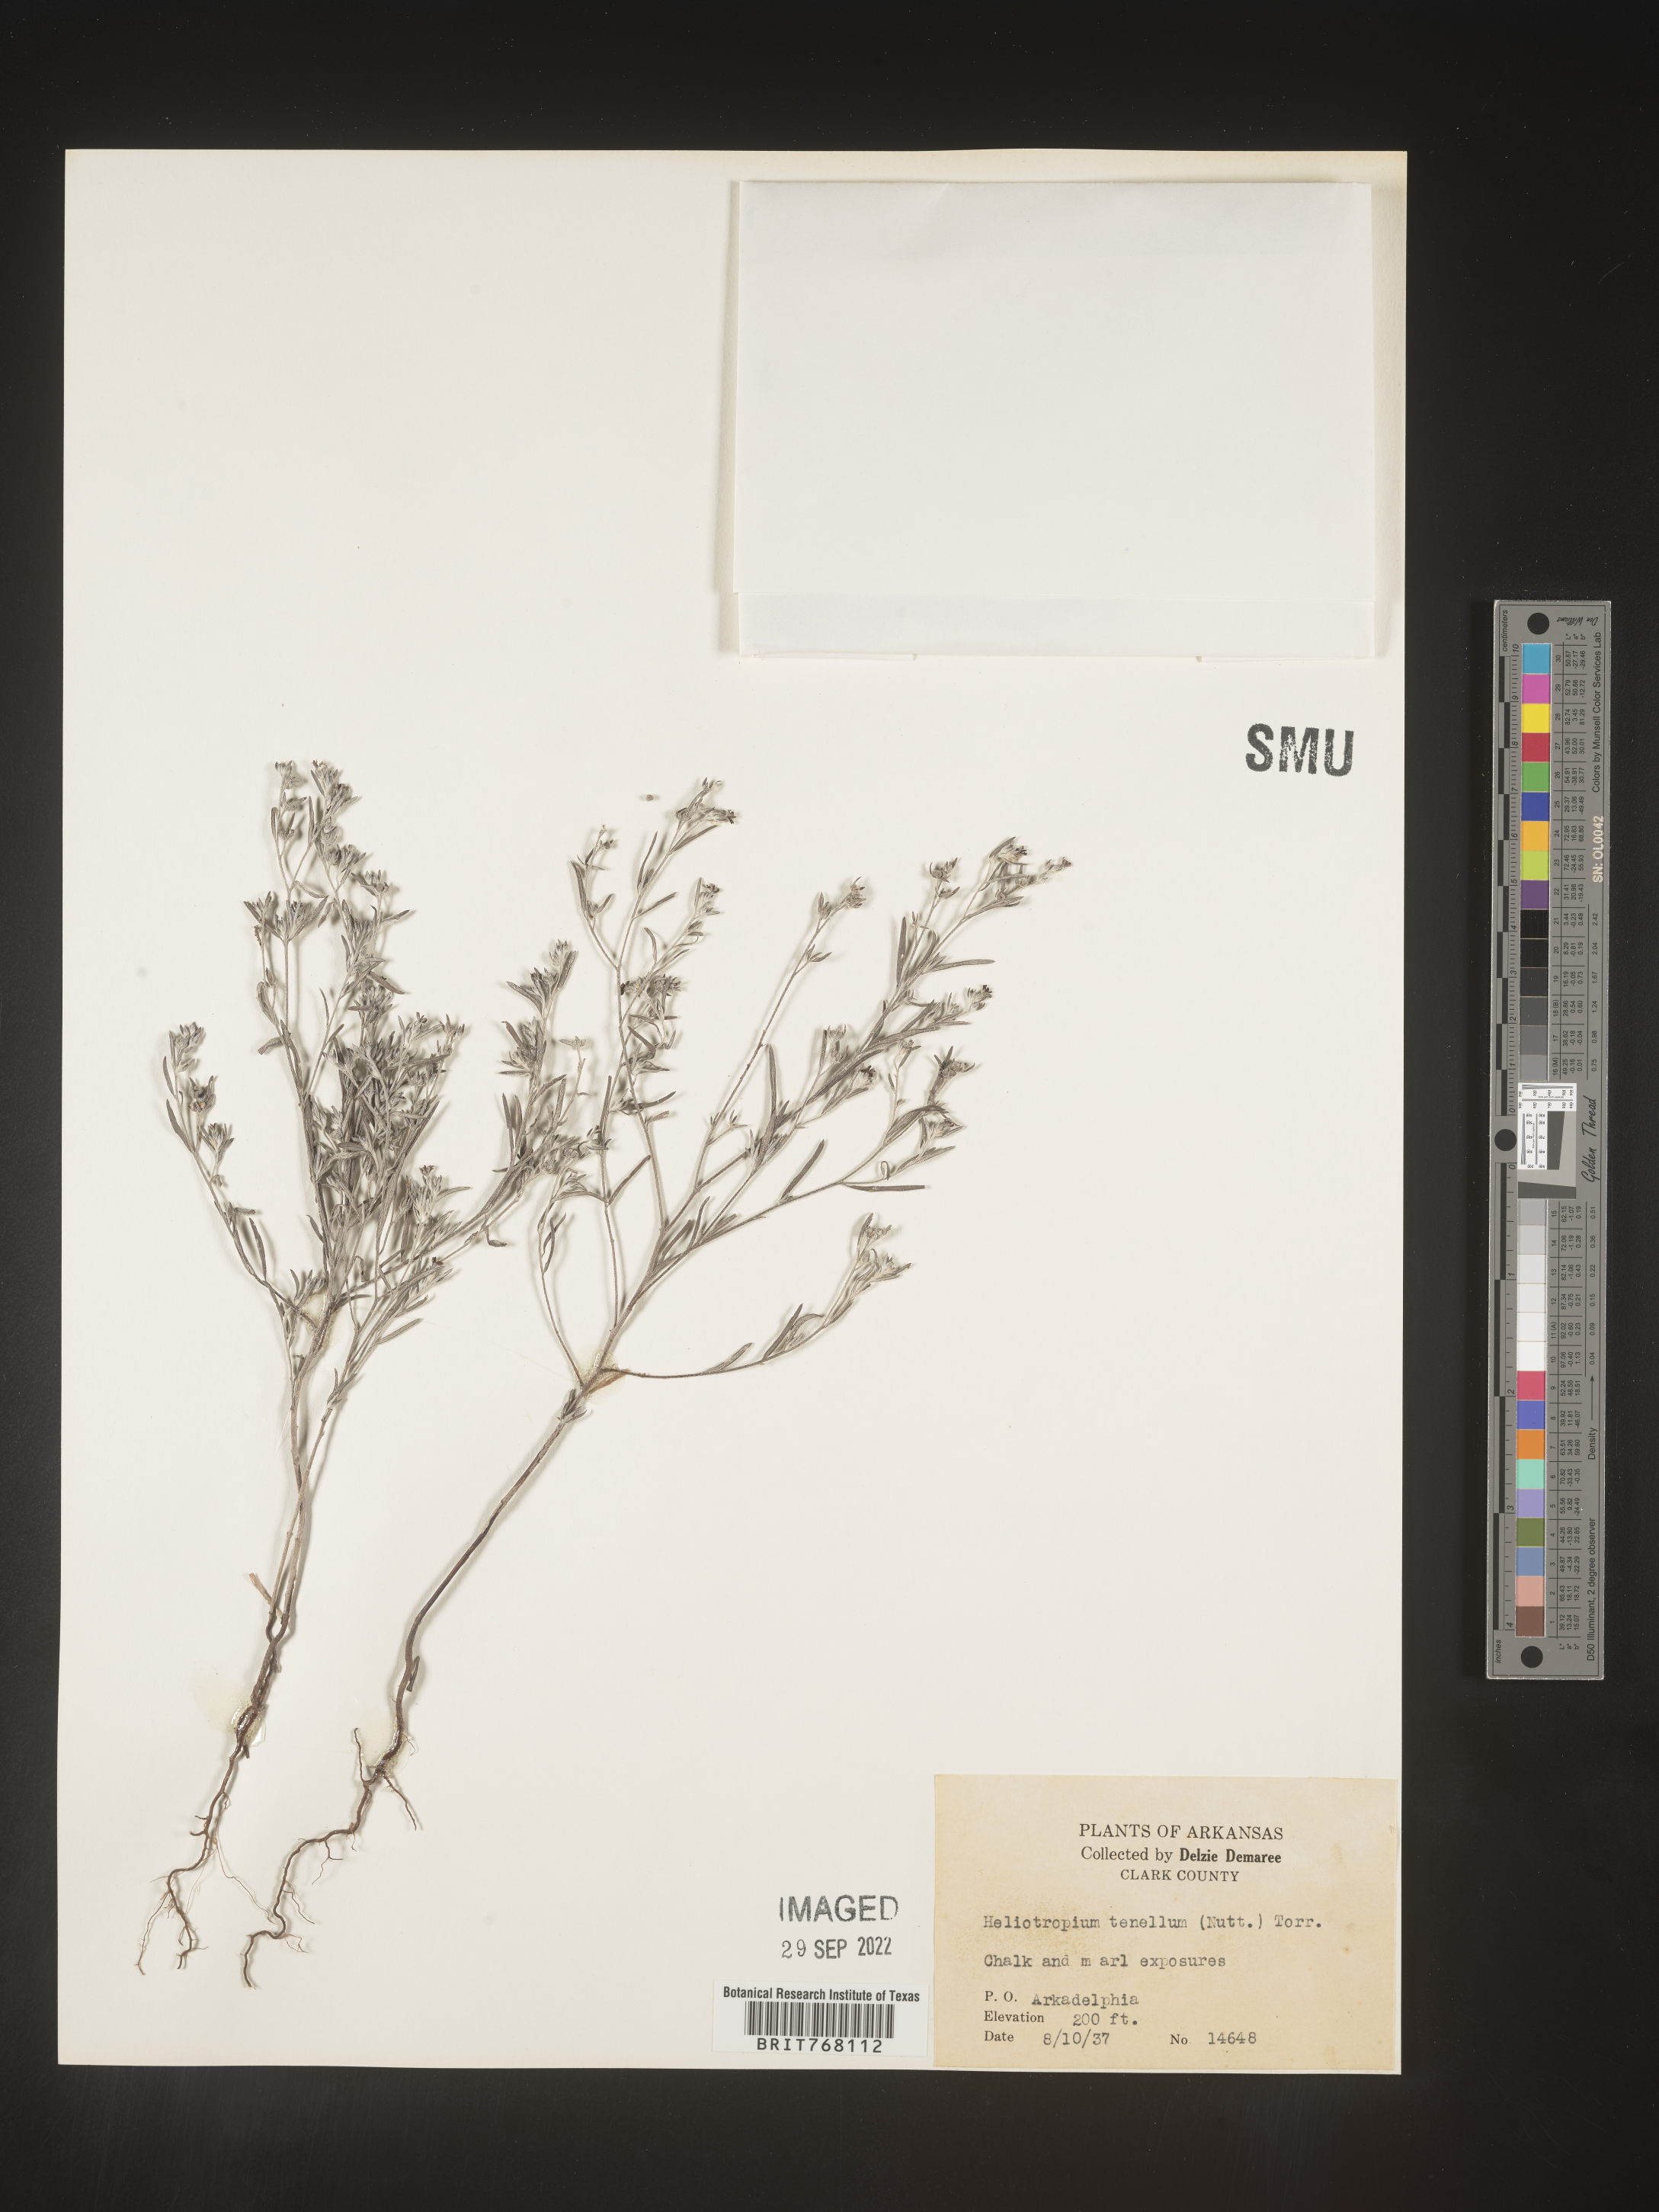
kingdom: Plantae
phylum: Tracheophyta
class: Magnoliopsida
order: Boraginales
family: Heliotropiaceae
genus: Euploca
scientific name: Euploca tenella
